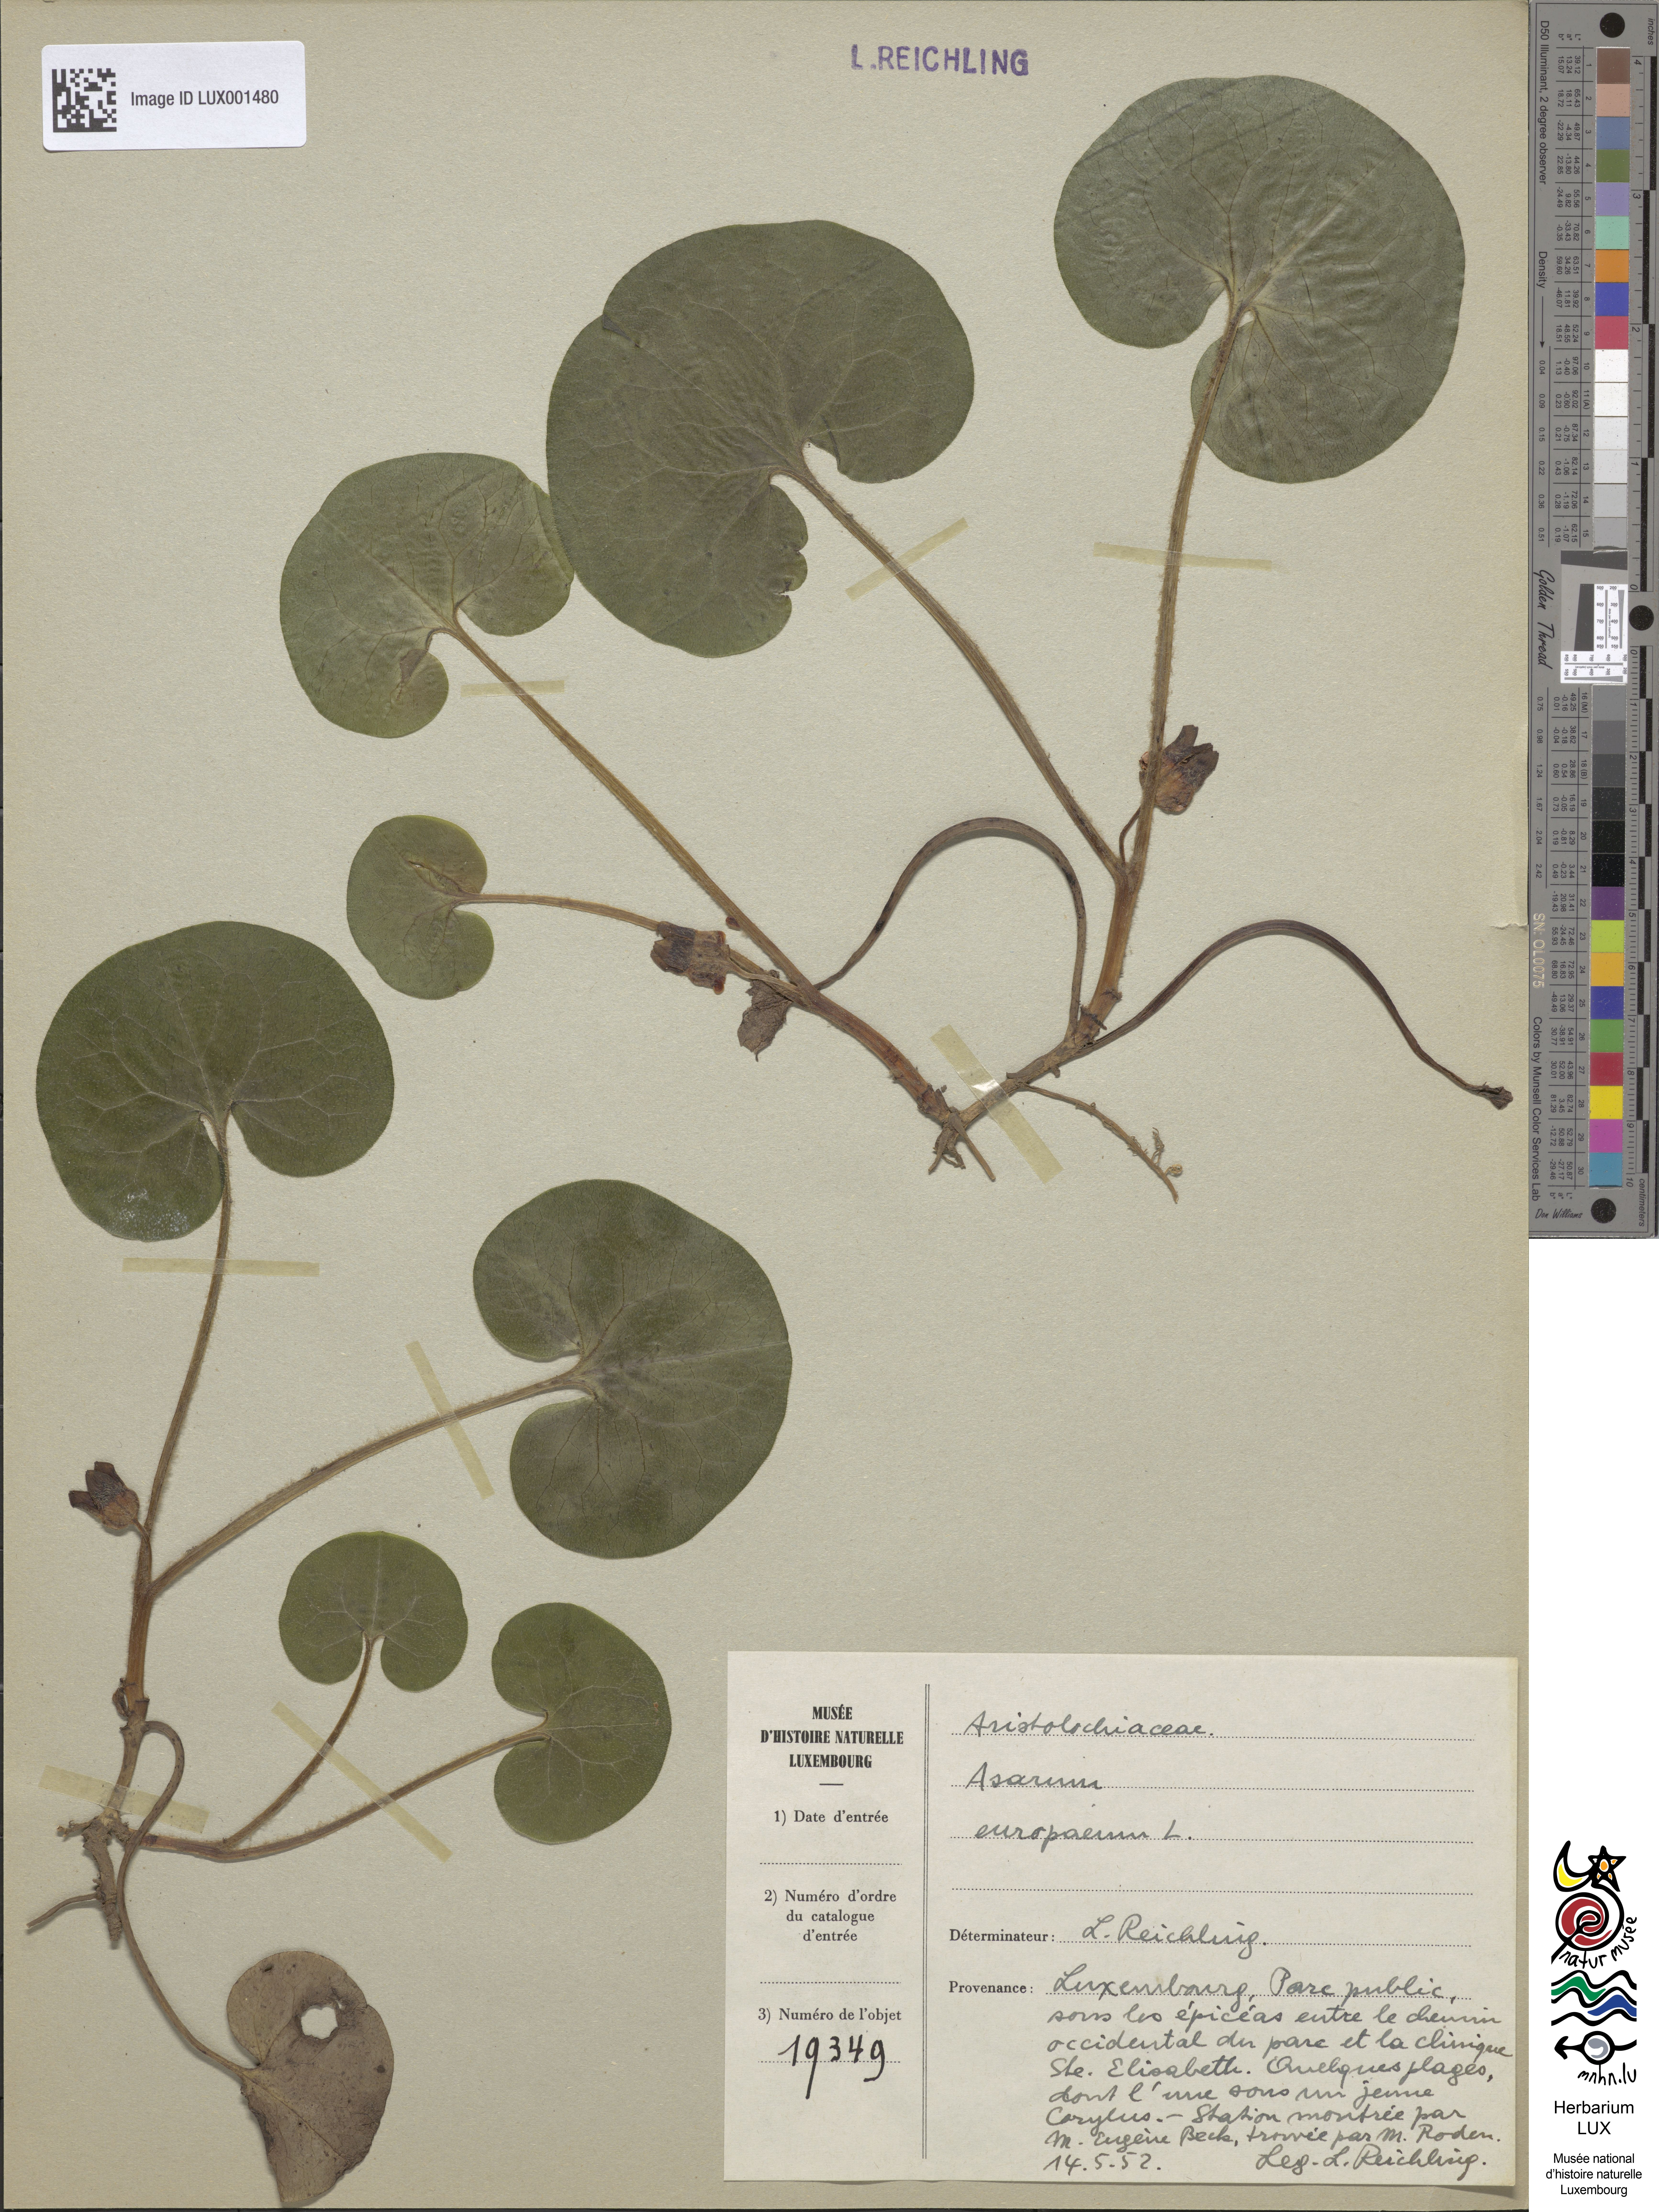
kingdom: Plantae
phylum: Tracheophyta
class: Magnoliopsida
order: Piperales
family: Aristolochiaceae
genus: Asarum
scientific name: Asarum europaeum
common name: Asarabacca
